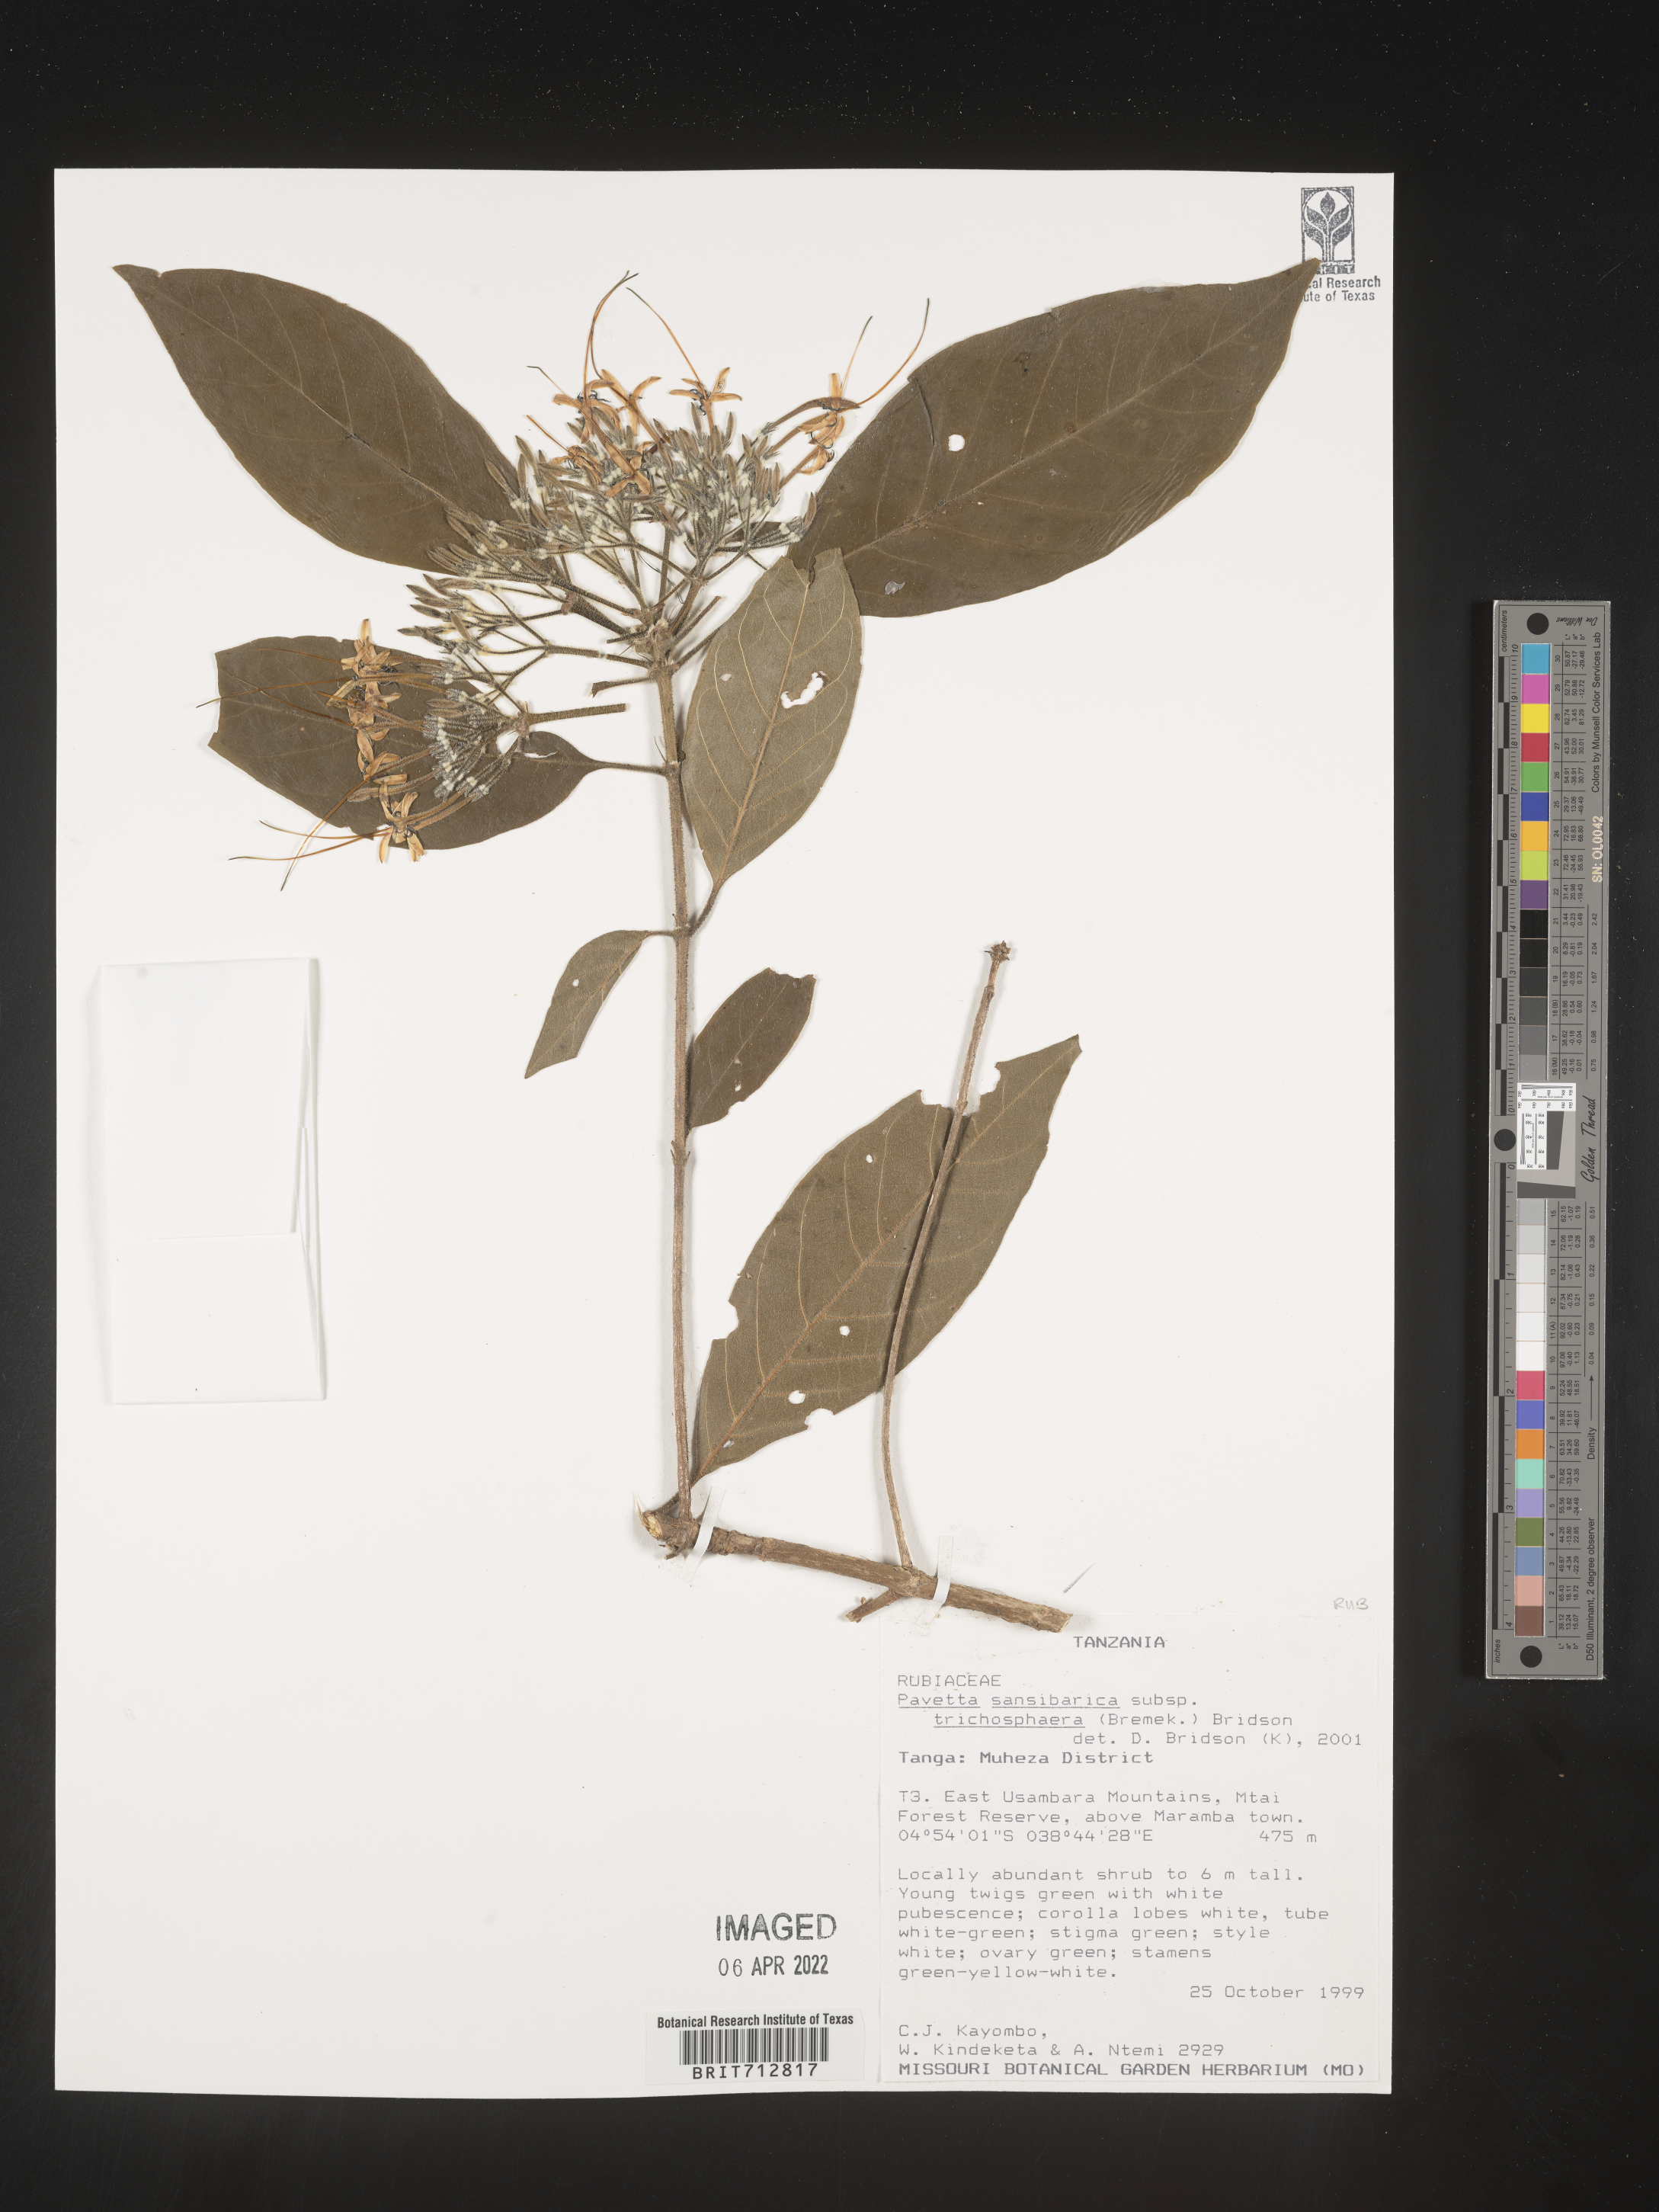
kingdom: Plantae
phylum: Tracheophyta
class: Magnoliopsida
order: Gentianales
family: Rubiaceae
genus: Pavetta
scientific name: Pavetta
